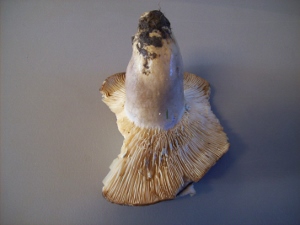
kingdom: Fungi
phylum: Basidiomycota
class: Agaricomycetes
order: Russulales
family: Russulaceae
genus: Lactarius
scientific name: Lactarius flexuosus
